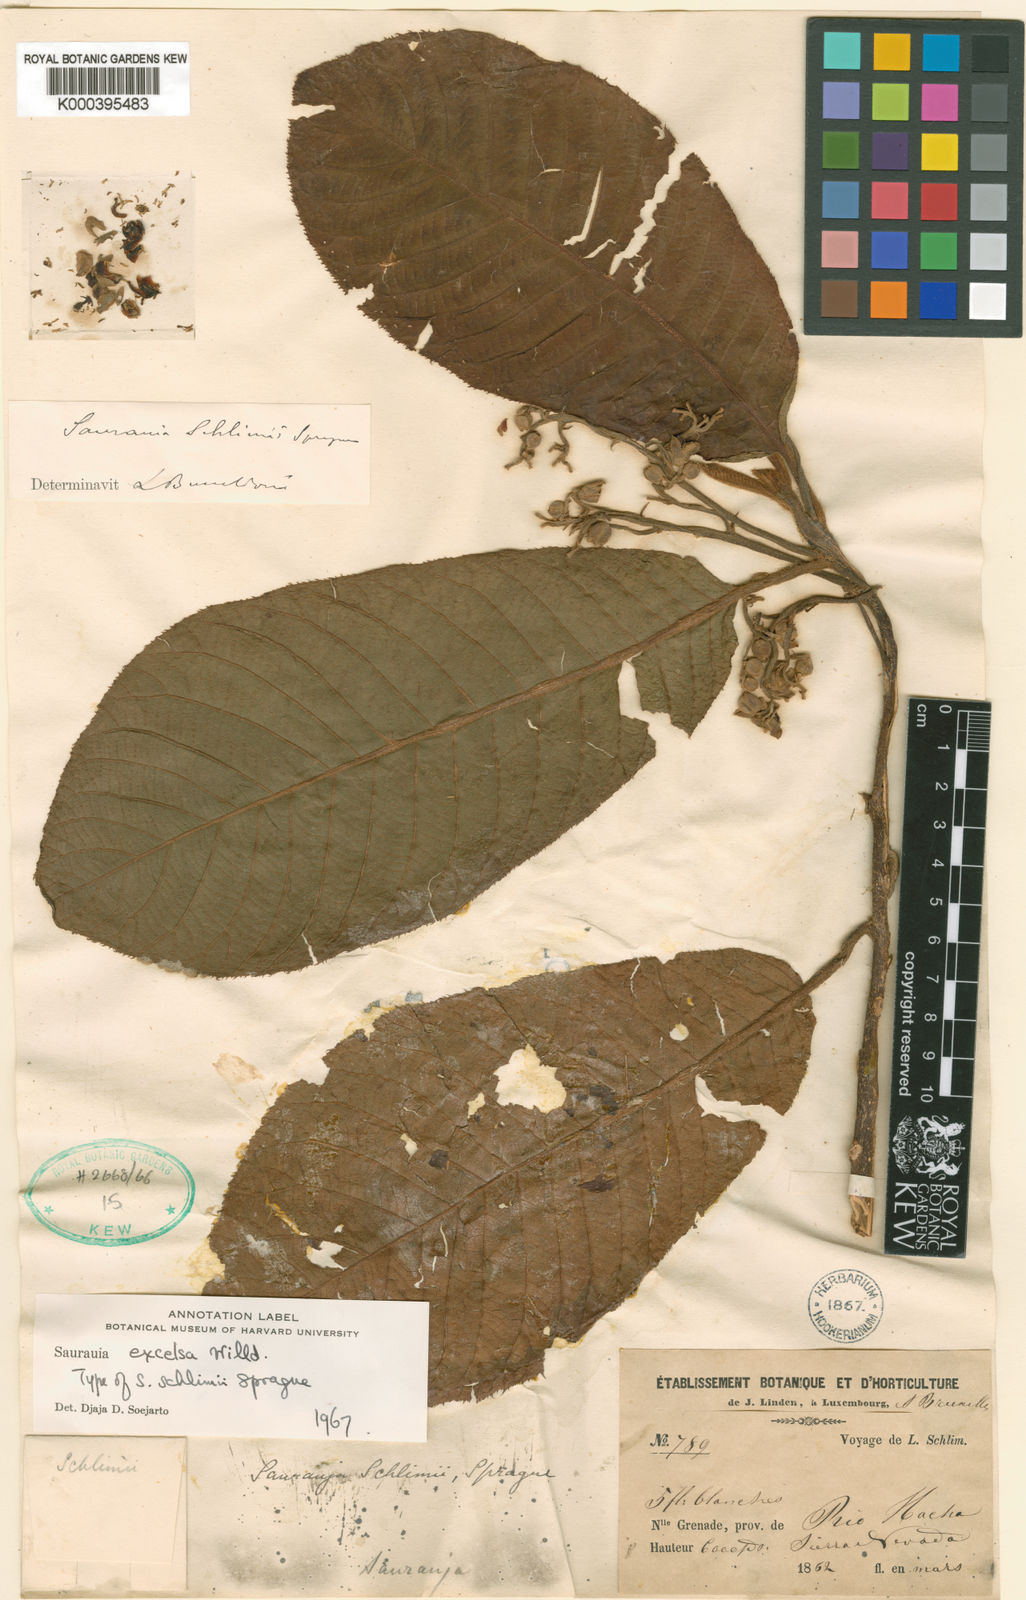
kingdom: Plantae
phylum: Tracheophyta
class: Magnoliopsida
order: Ericales
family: Actinidiaceae
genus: Saurauia
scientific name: Saurauia excelsa
